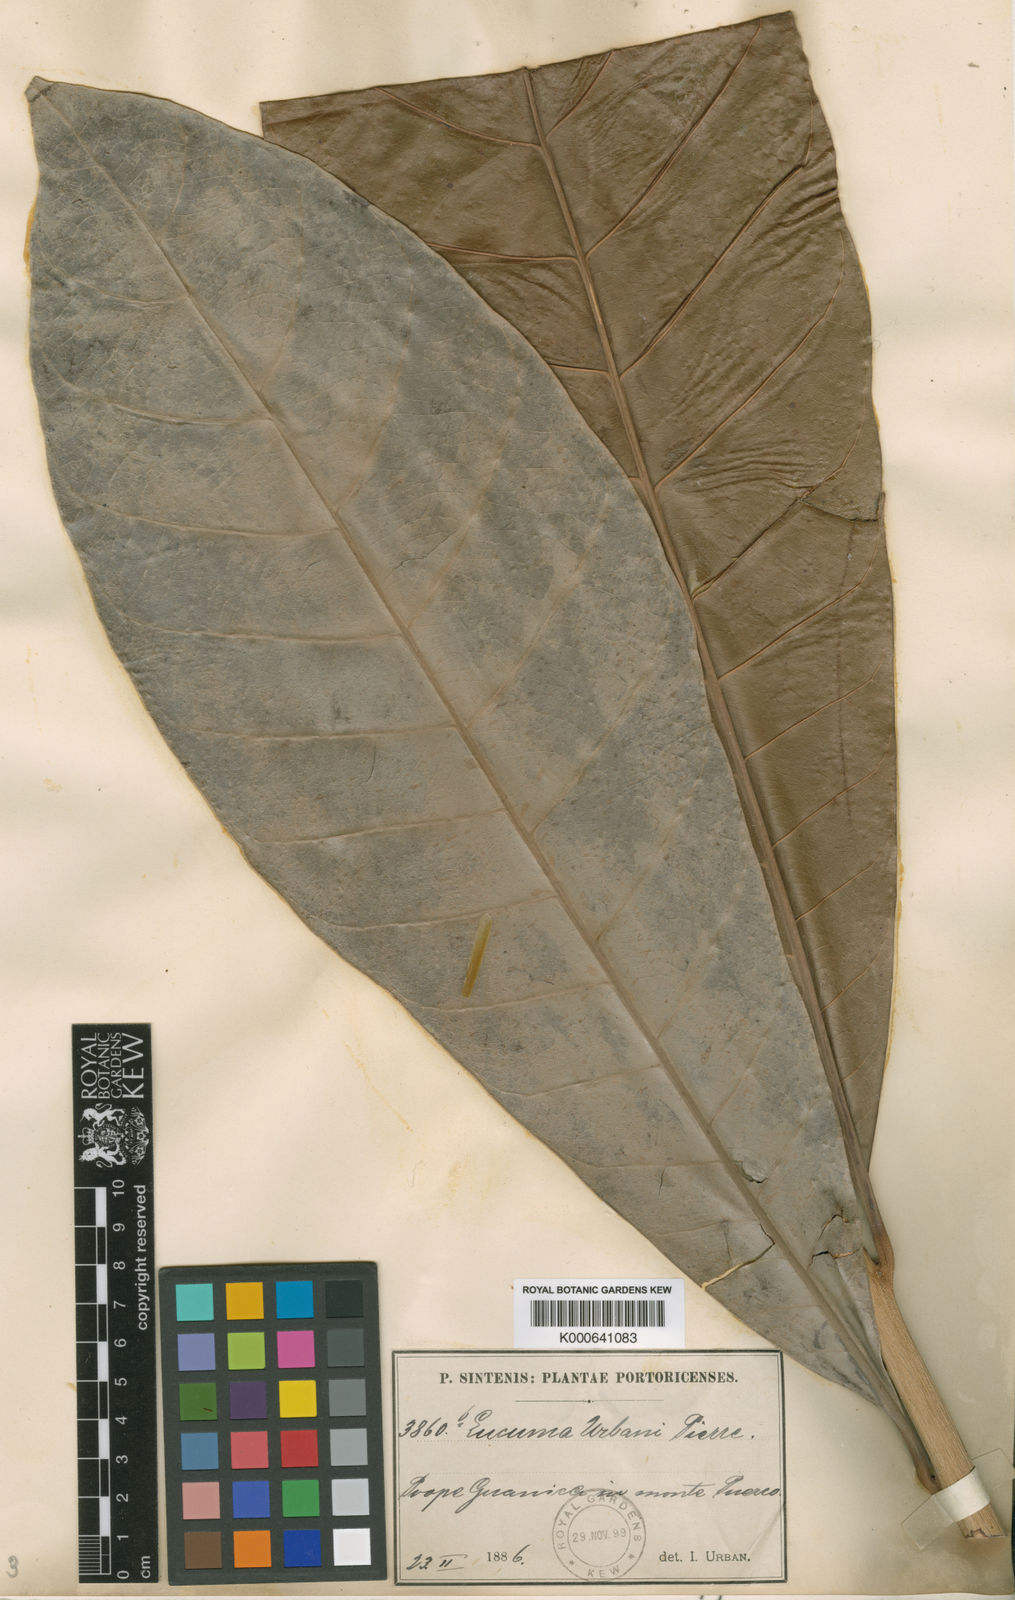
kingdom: Plantae
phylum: Tracheophyta
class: Magnoliopsida
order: Ericales
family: Sapotaceae
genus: Pouteria
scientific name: Pouteria multiflora
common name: Bullytree
